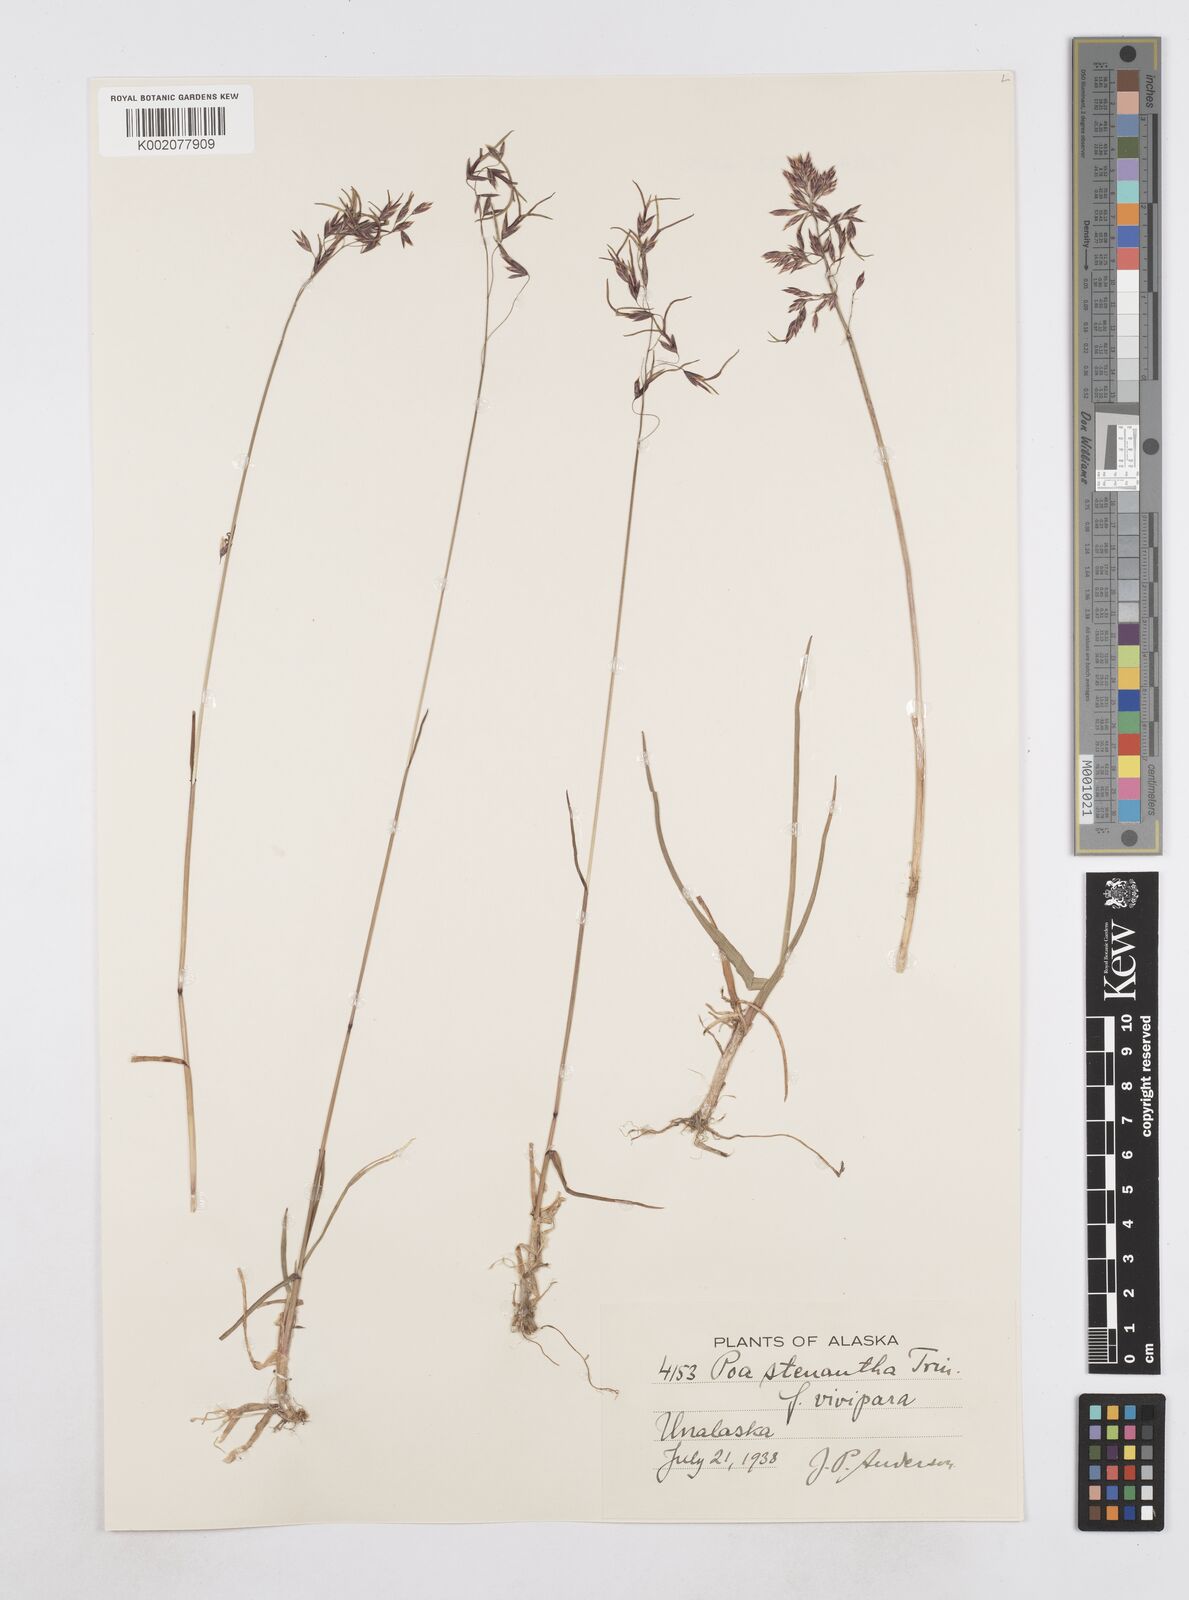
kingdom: Plantae
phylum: Tracheophyta
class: Liliopsida
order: Poales
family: Poaceae
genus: Poa
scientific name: Poa stenantha
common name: Narrow-flowered bluegrass
